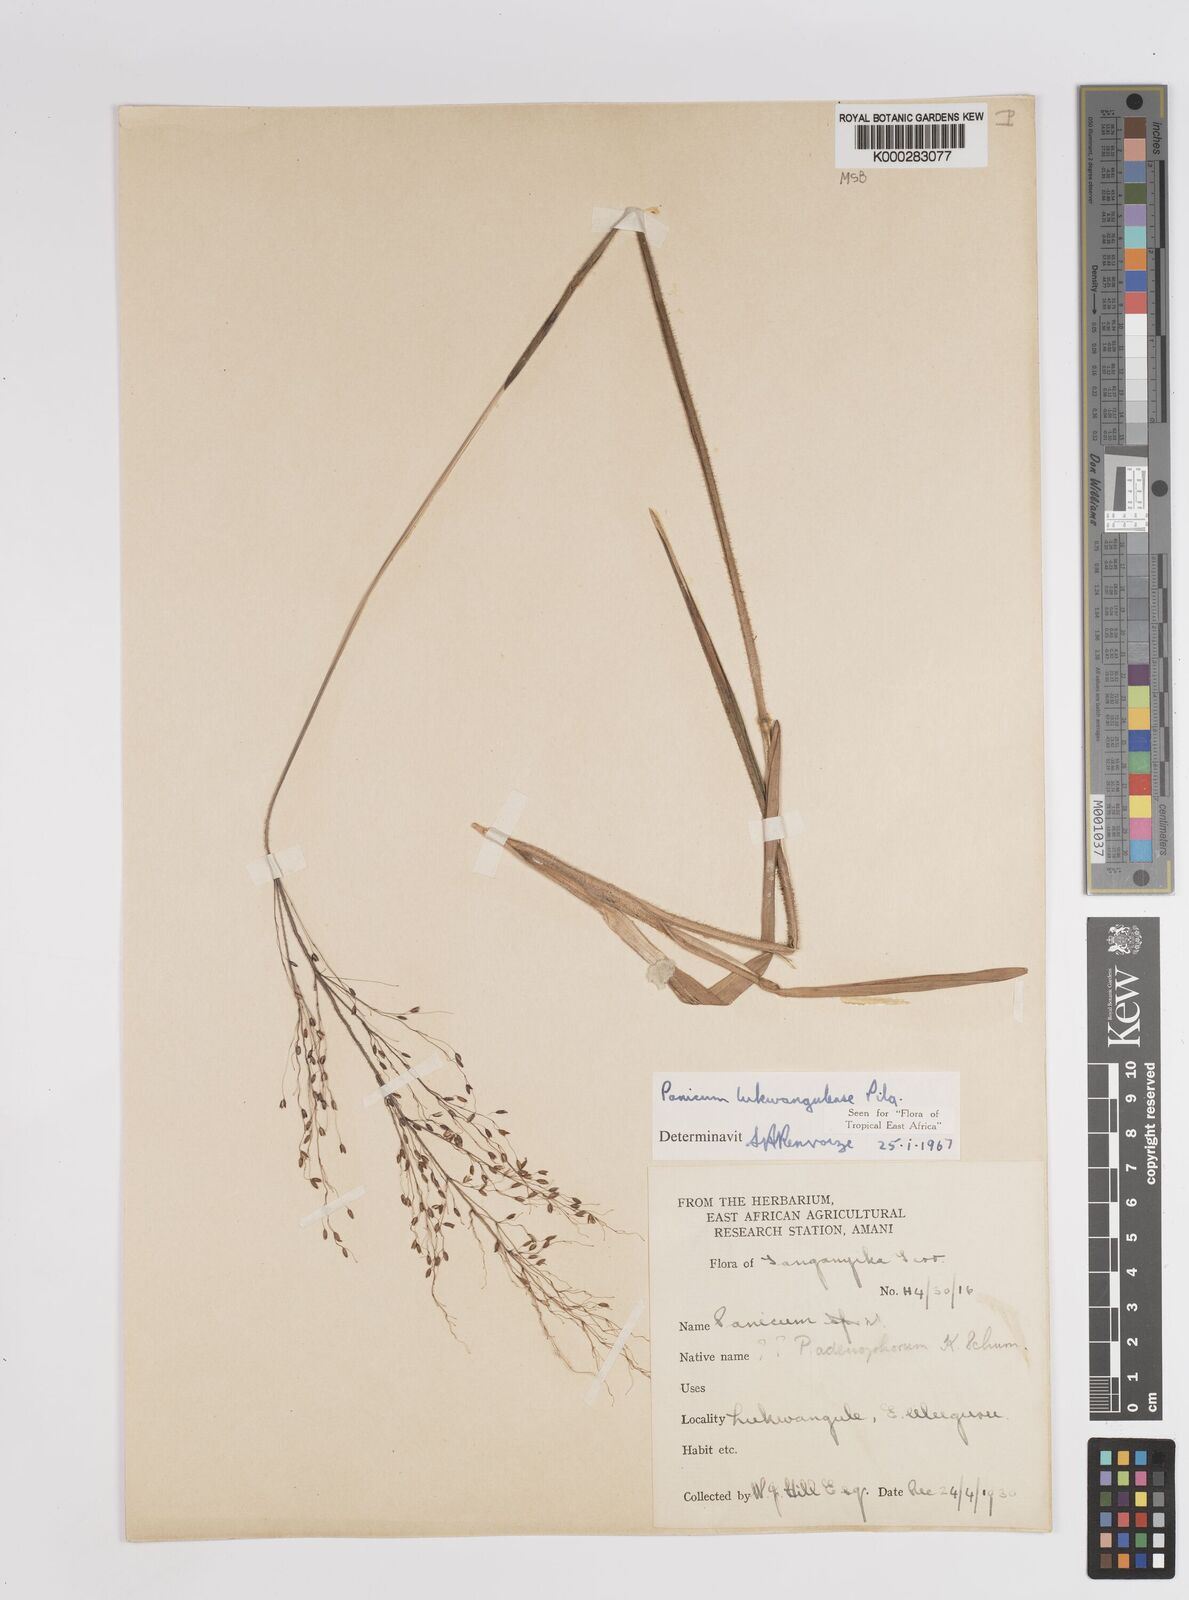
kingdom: Plantae
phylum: Tracheophyta
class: Liliopsida
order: Poales
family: Poaceae
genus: Adenochloa
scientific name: Adenochloa lukwangulense
